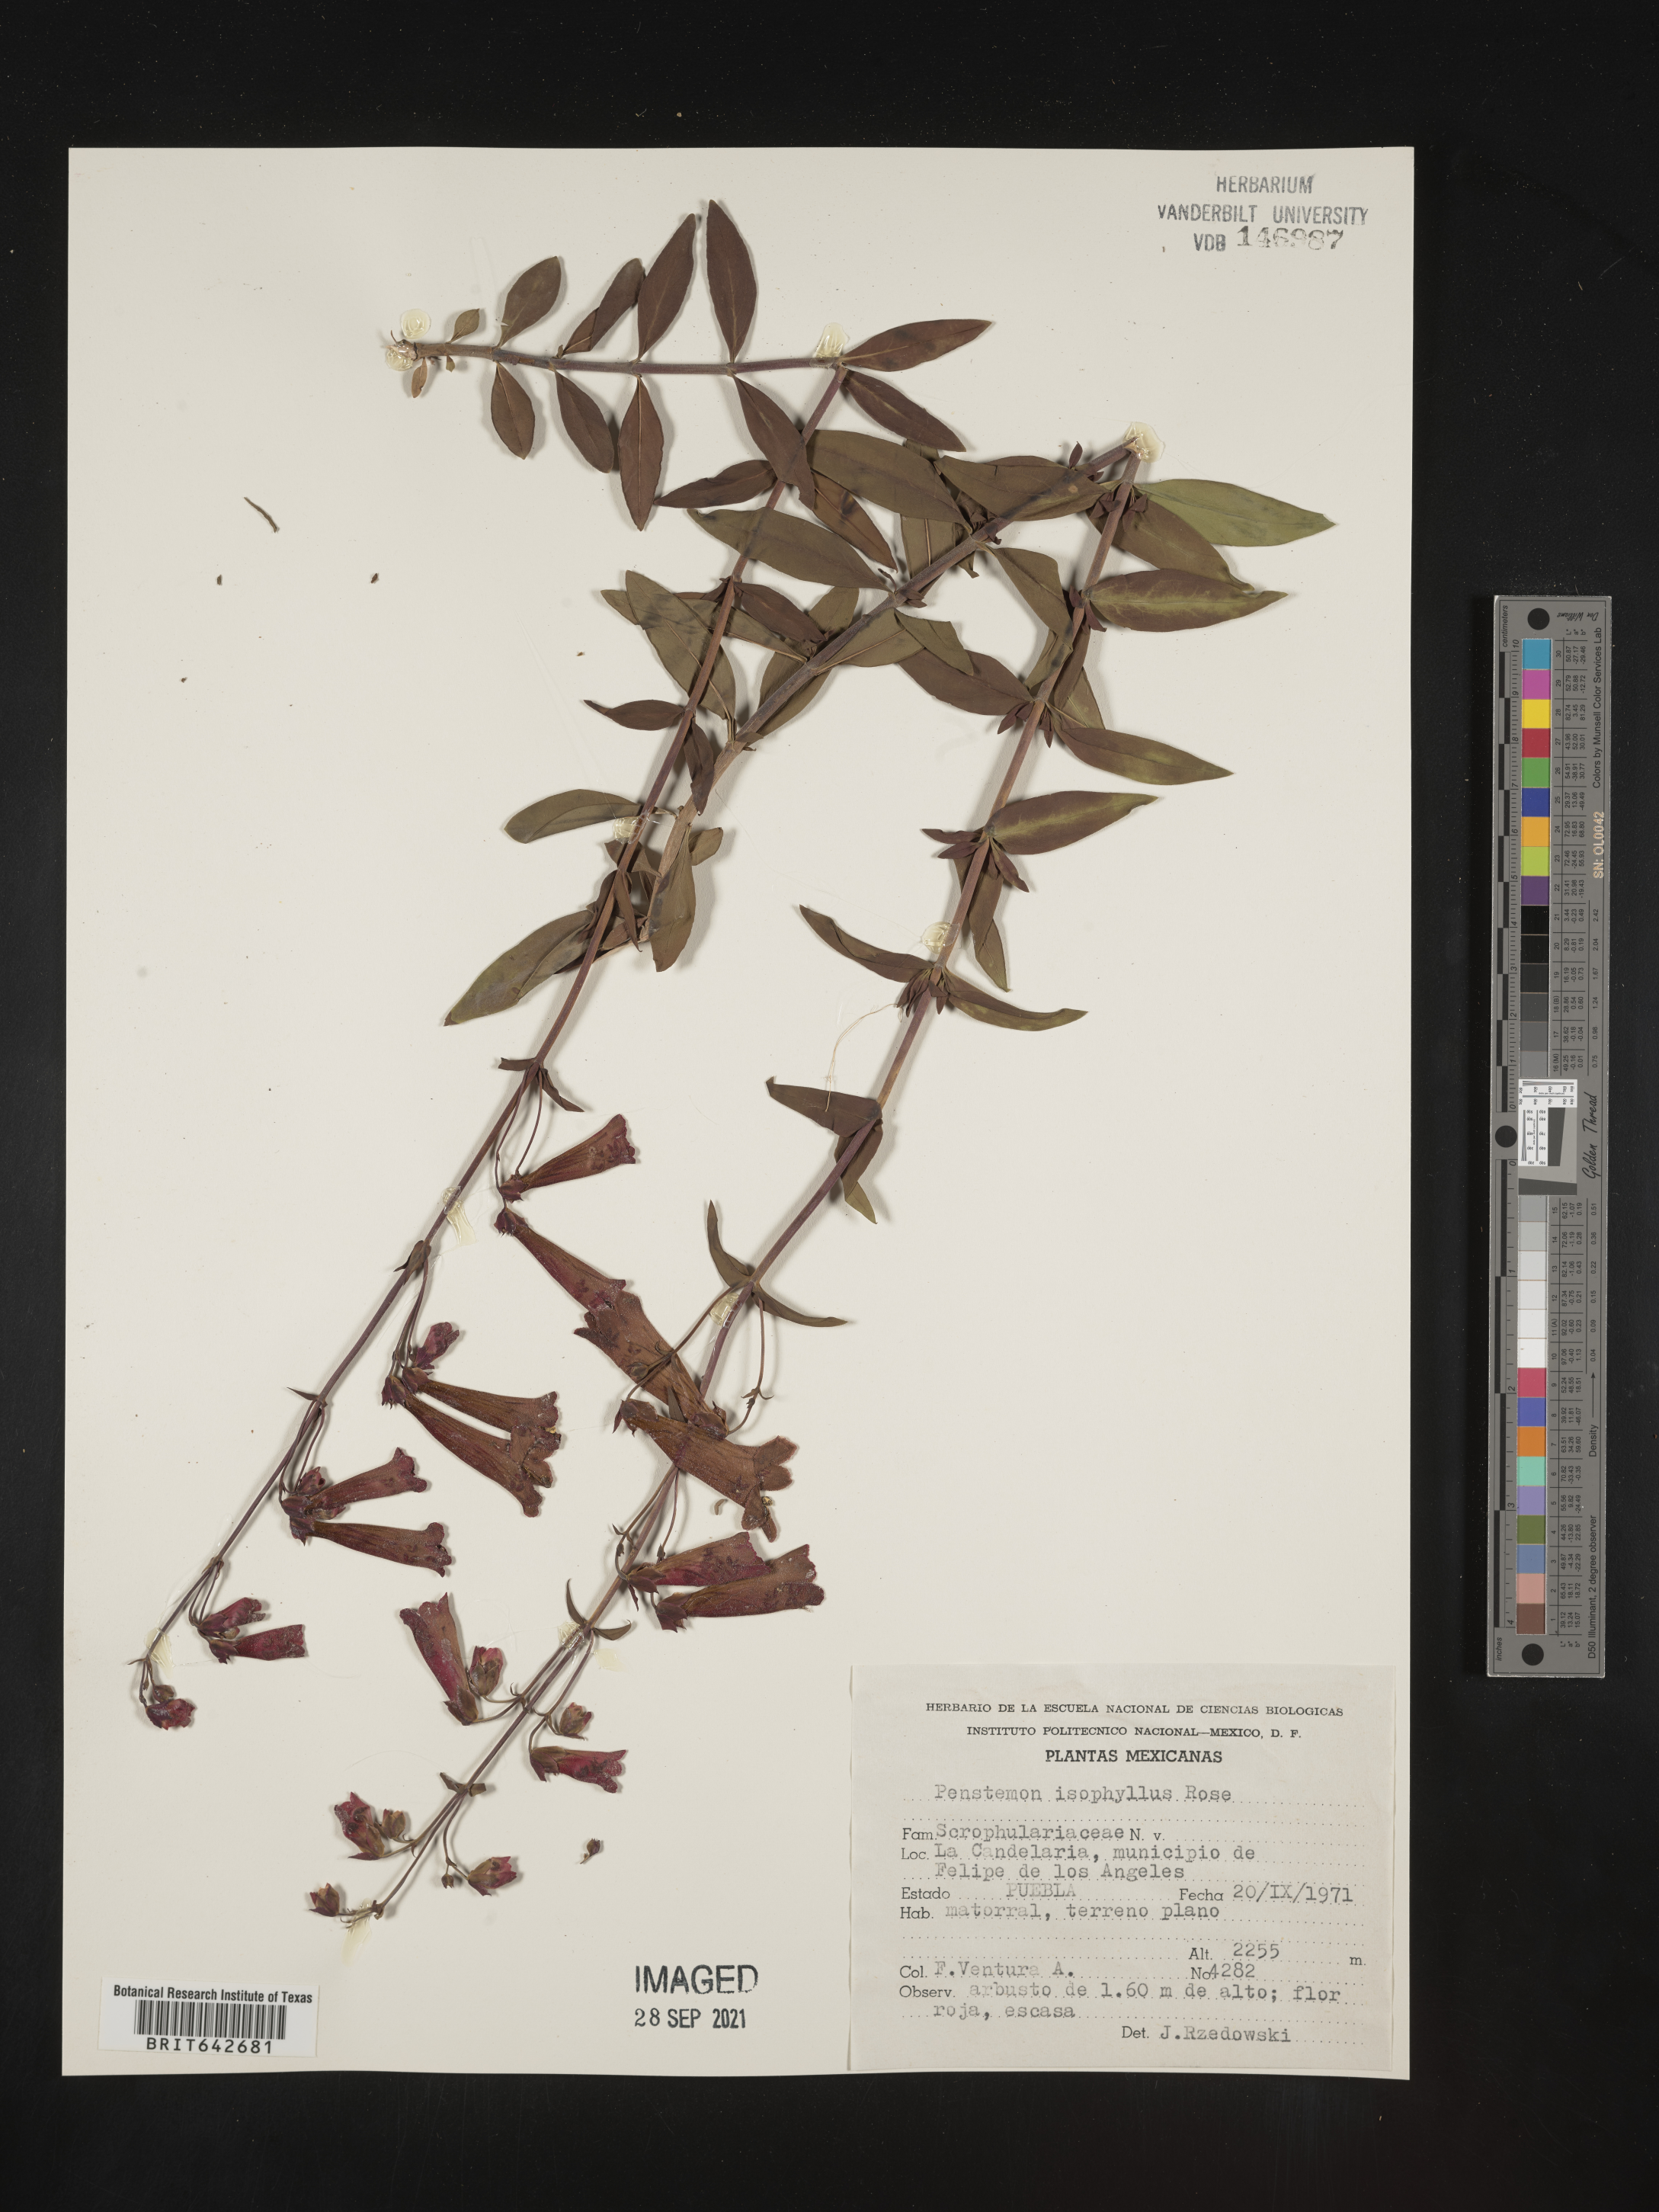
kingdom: Plantae
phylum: Tracheophyta
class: Magnoliopsida
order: Lamiales
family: Plantaginaceae
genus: Penstemon
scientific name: Penstemon
